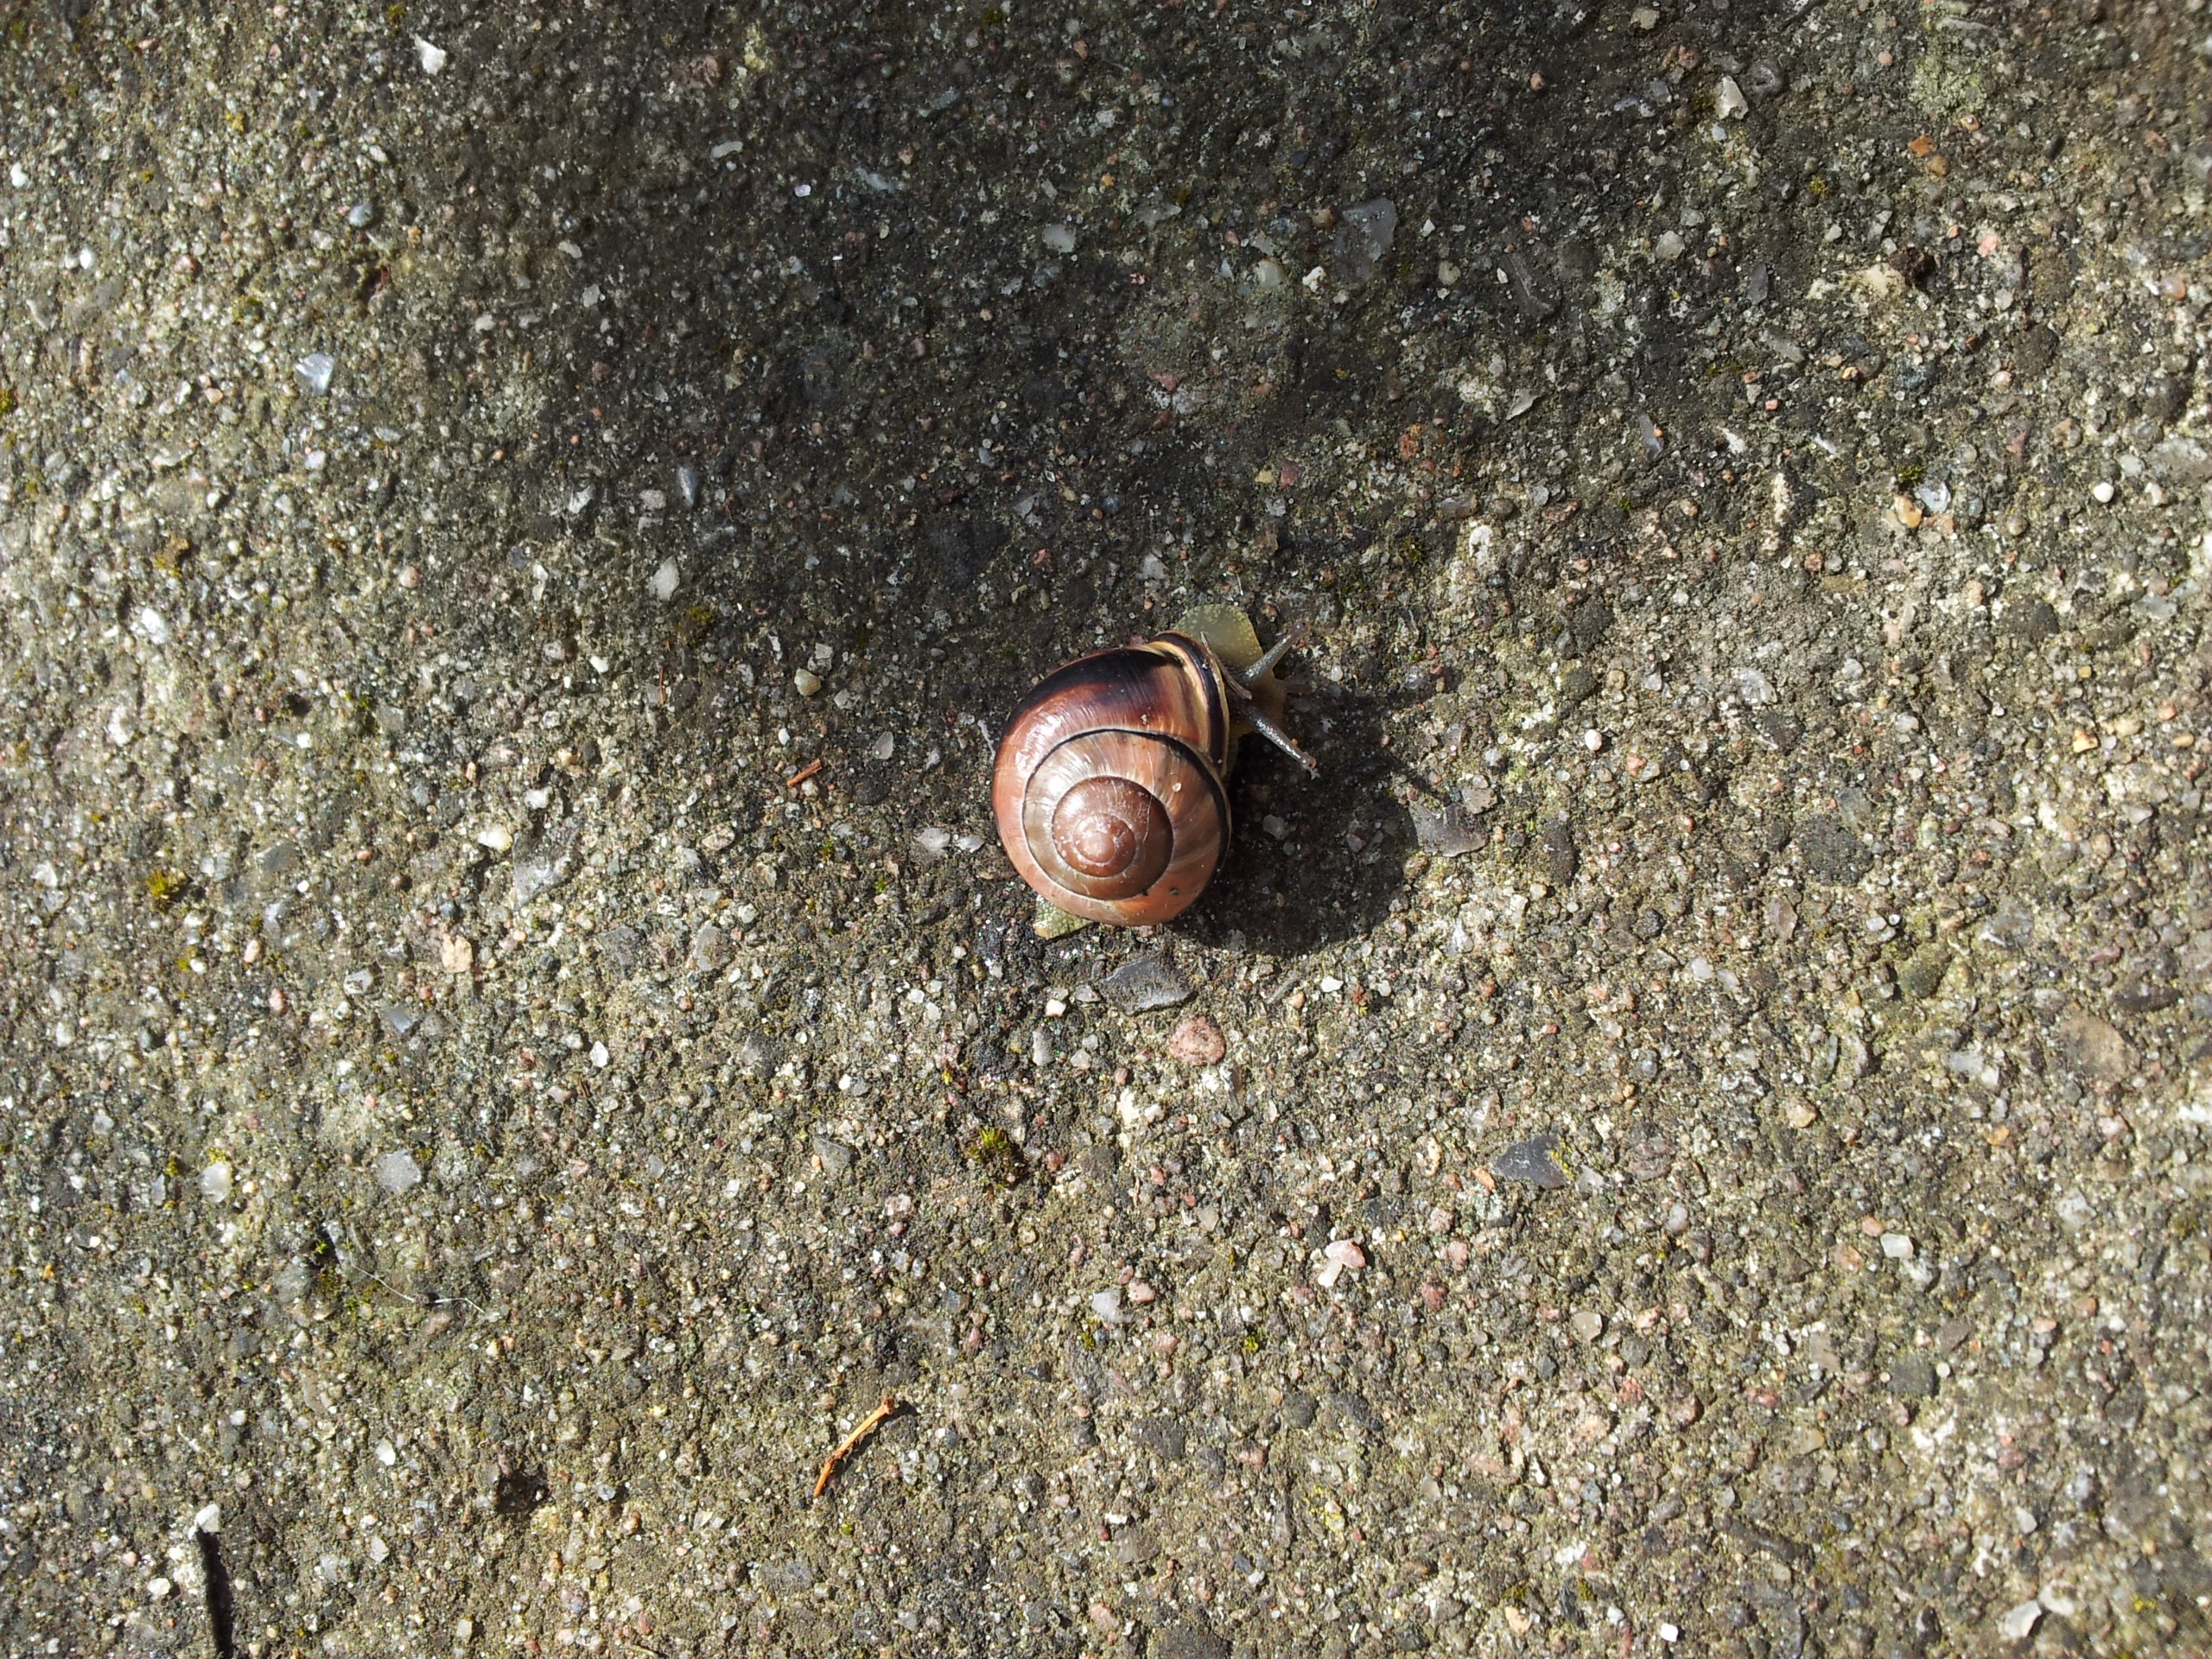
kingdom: Animalia
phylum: Mollusca
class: Gastropoda
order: Stylommatophora
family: Helicidae
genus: Cepaea
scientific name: Cepaea nemoralis
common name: Lundsnegl
